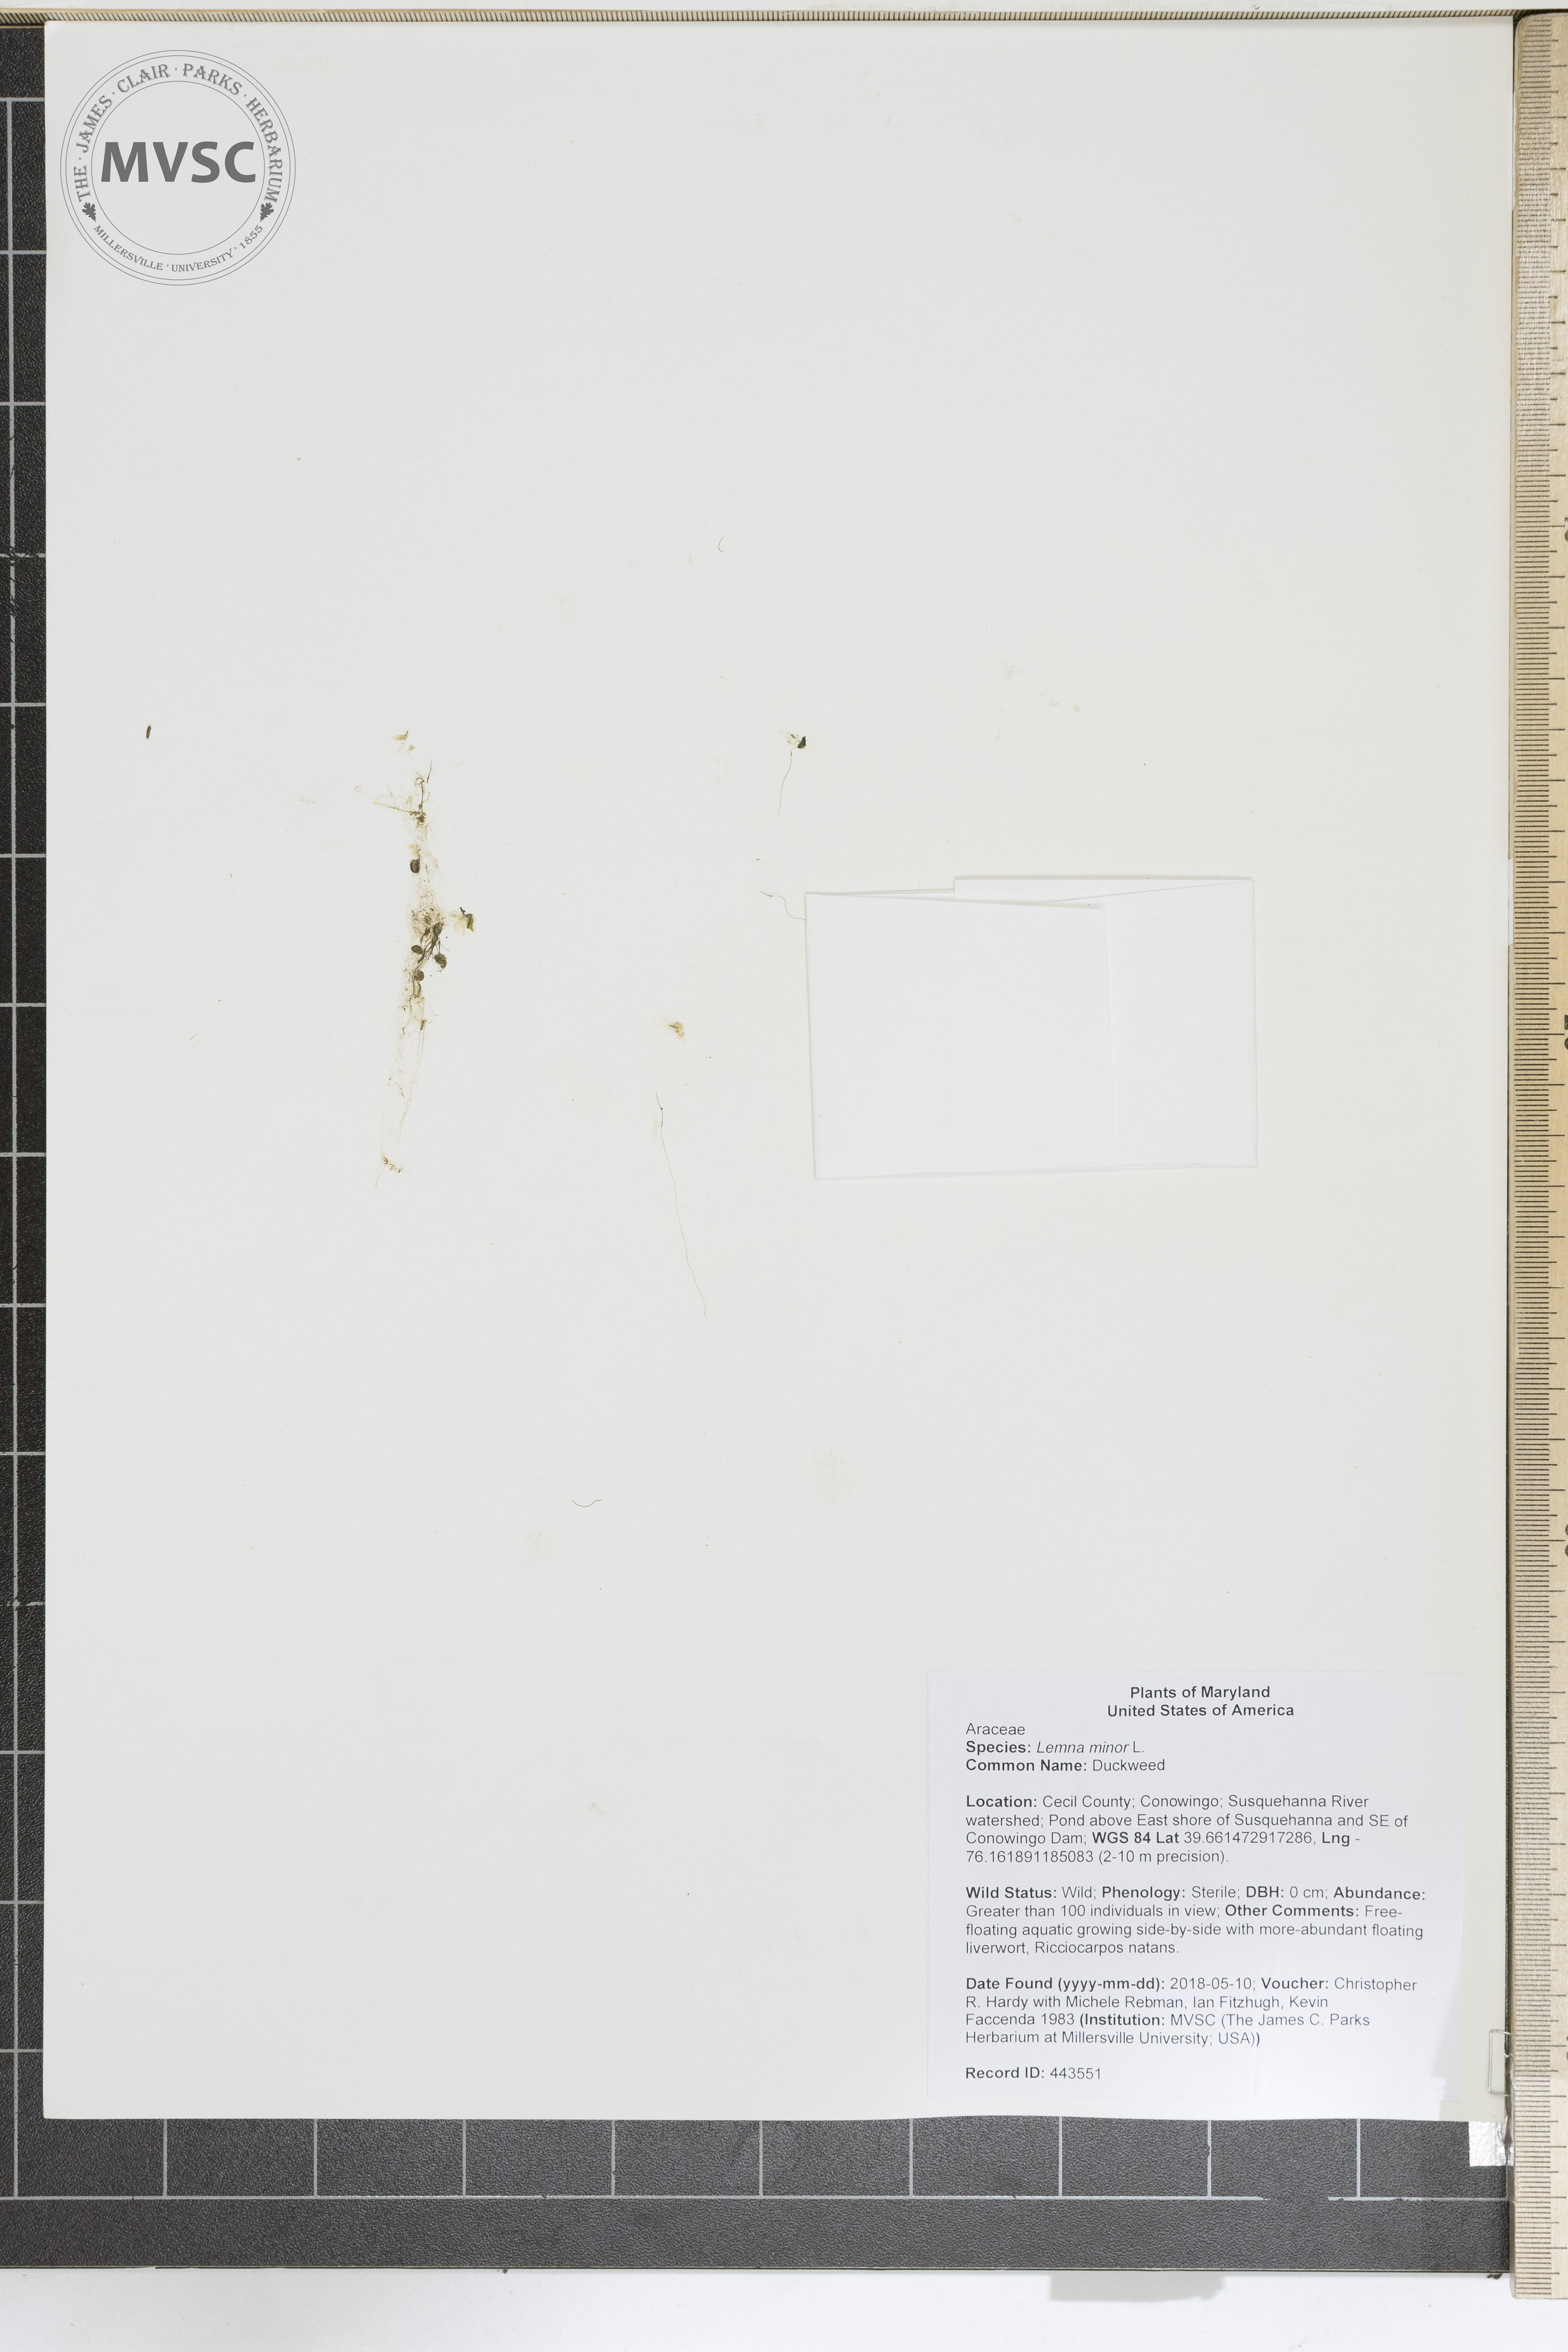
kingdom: Plantae
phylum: Tracheophyta
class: Liliopsida
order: Alismatales
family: Araceae
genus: Lemna
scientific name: Lemna minor
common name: Duckweed
